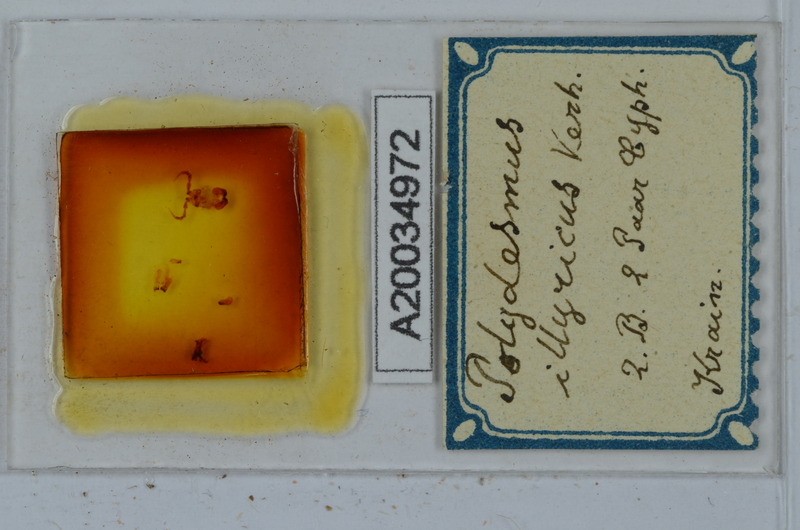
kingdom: Animalia
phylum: Arthropoda
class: Diplopoda
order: Polydesmida
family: Polydesmidae
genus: Polydesmus
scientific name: Polydesmus complanatus
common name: Flat-backed millipede
